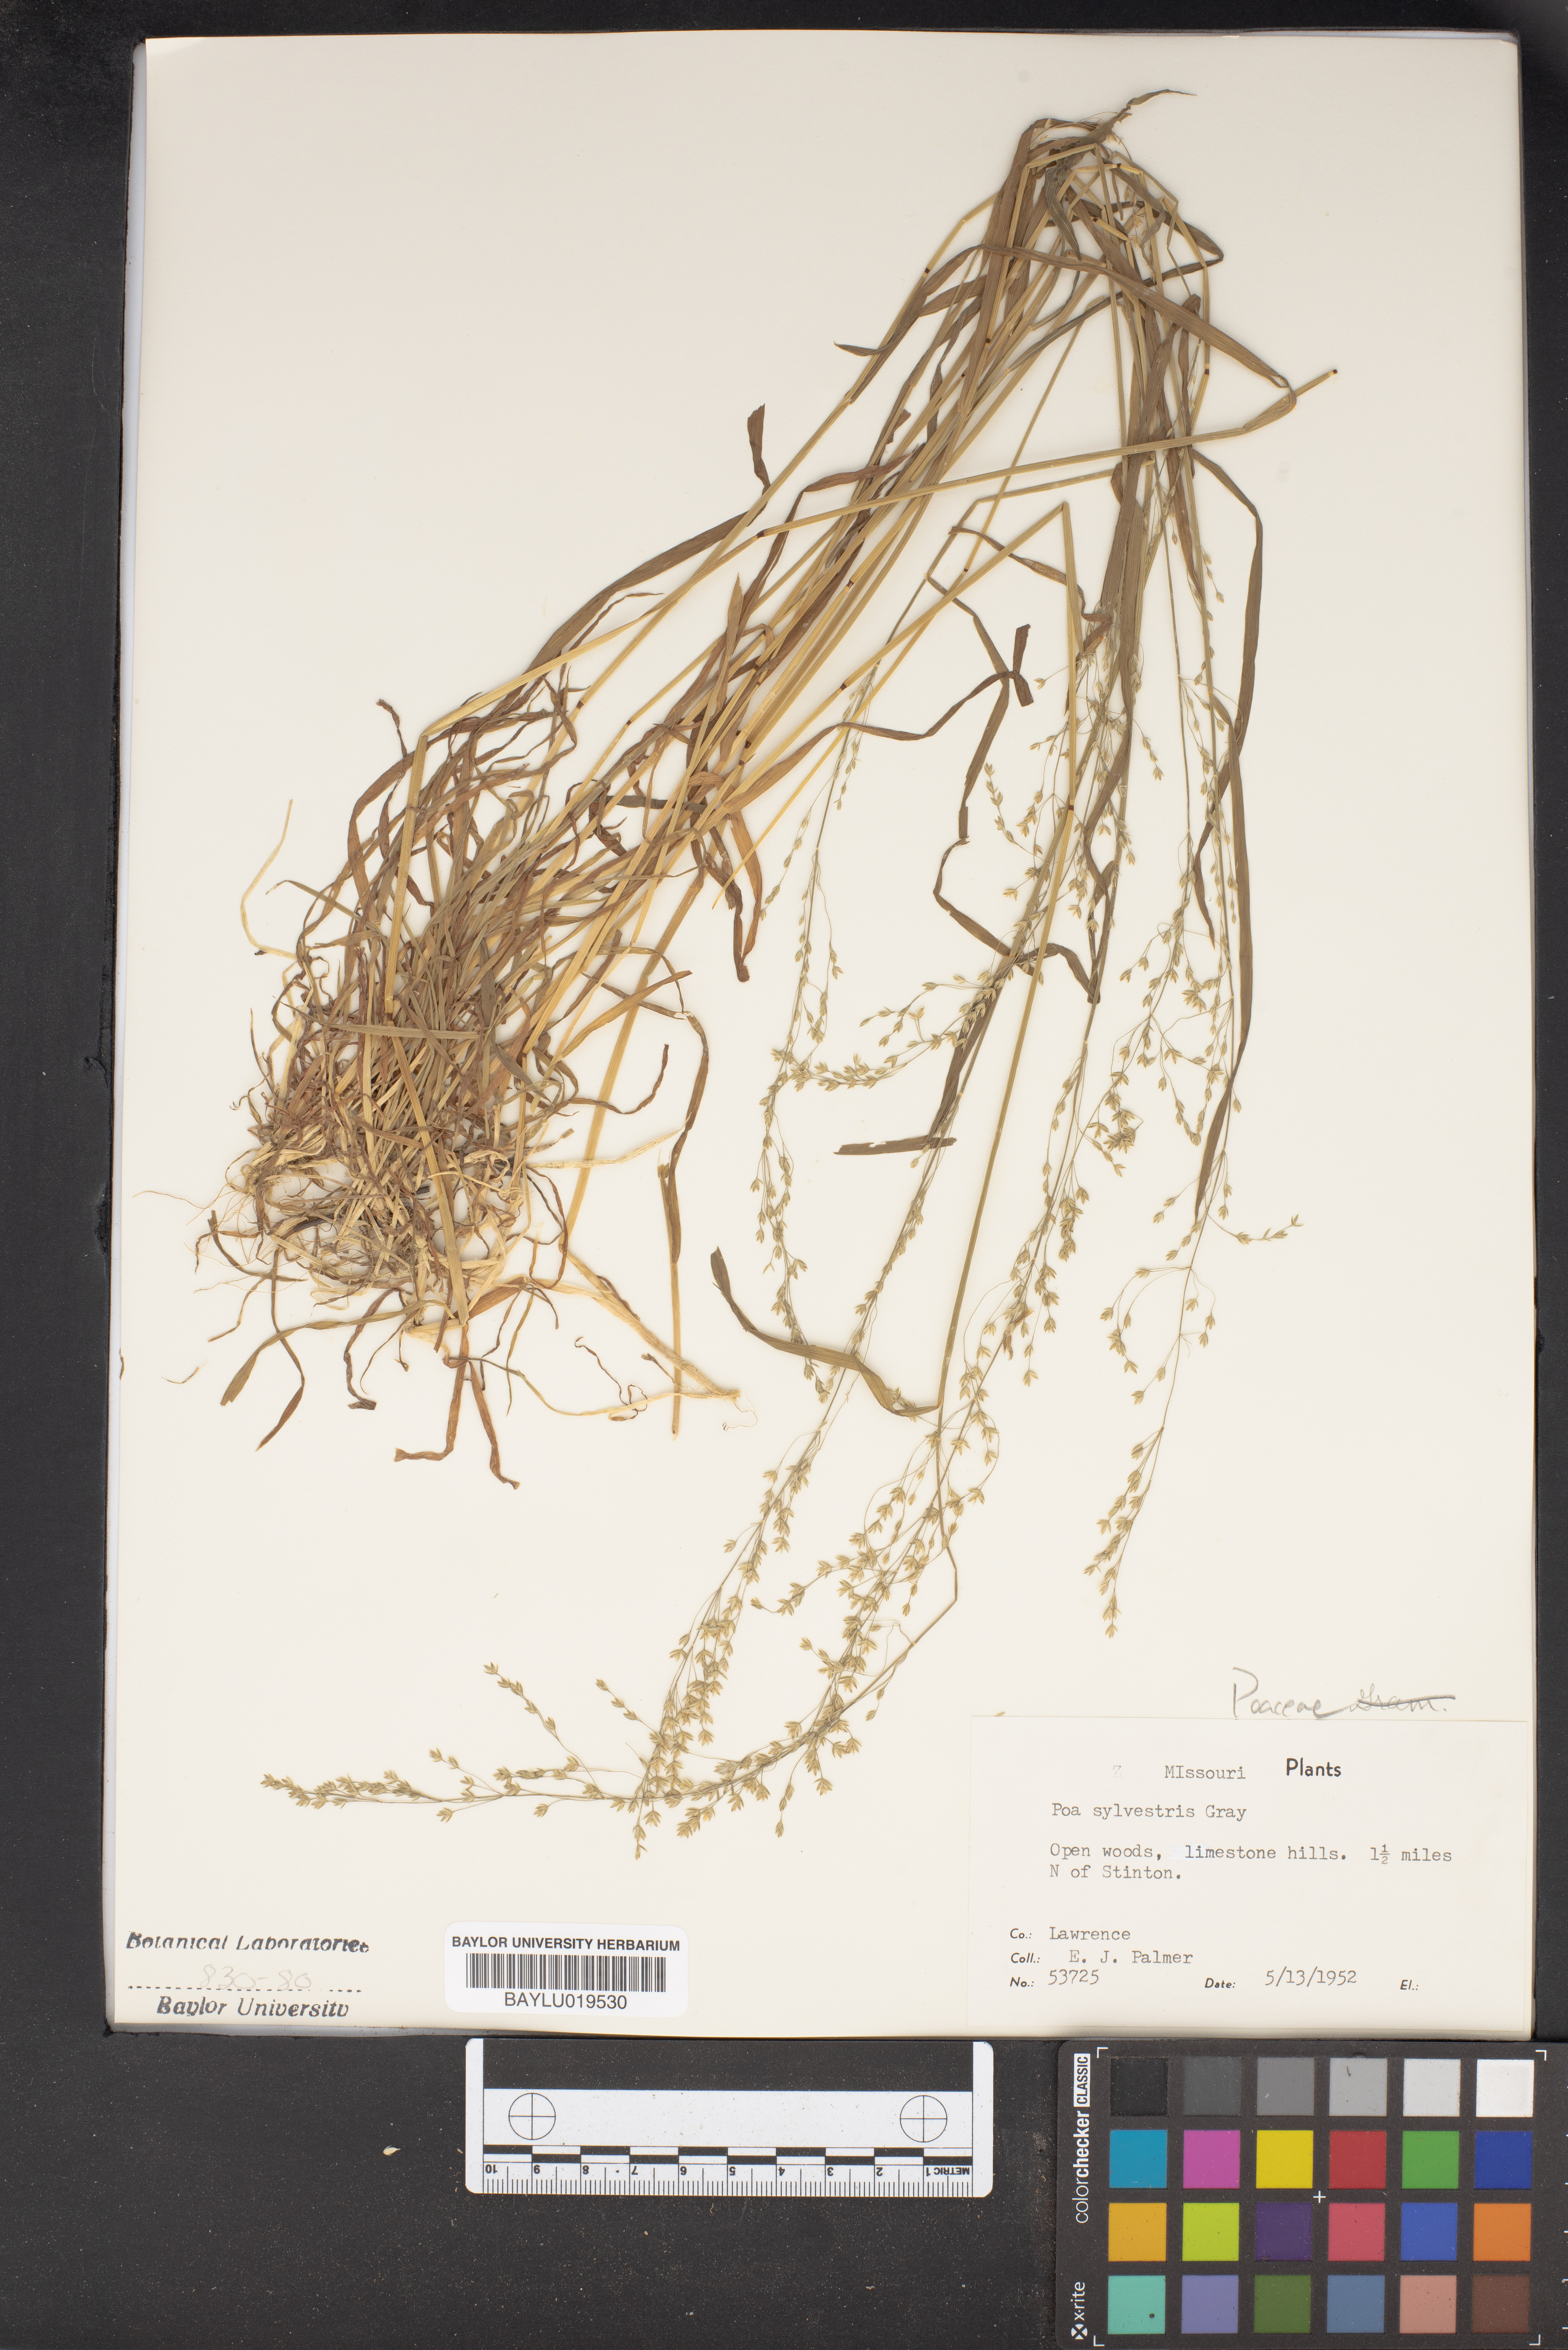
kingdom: Plantae
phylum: Tracheophyta
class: Liliopsida
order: Poales
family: Poaceae
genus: Poa
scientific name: Poa sylvestris
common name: North american woodland bluegrass
